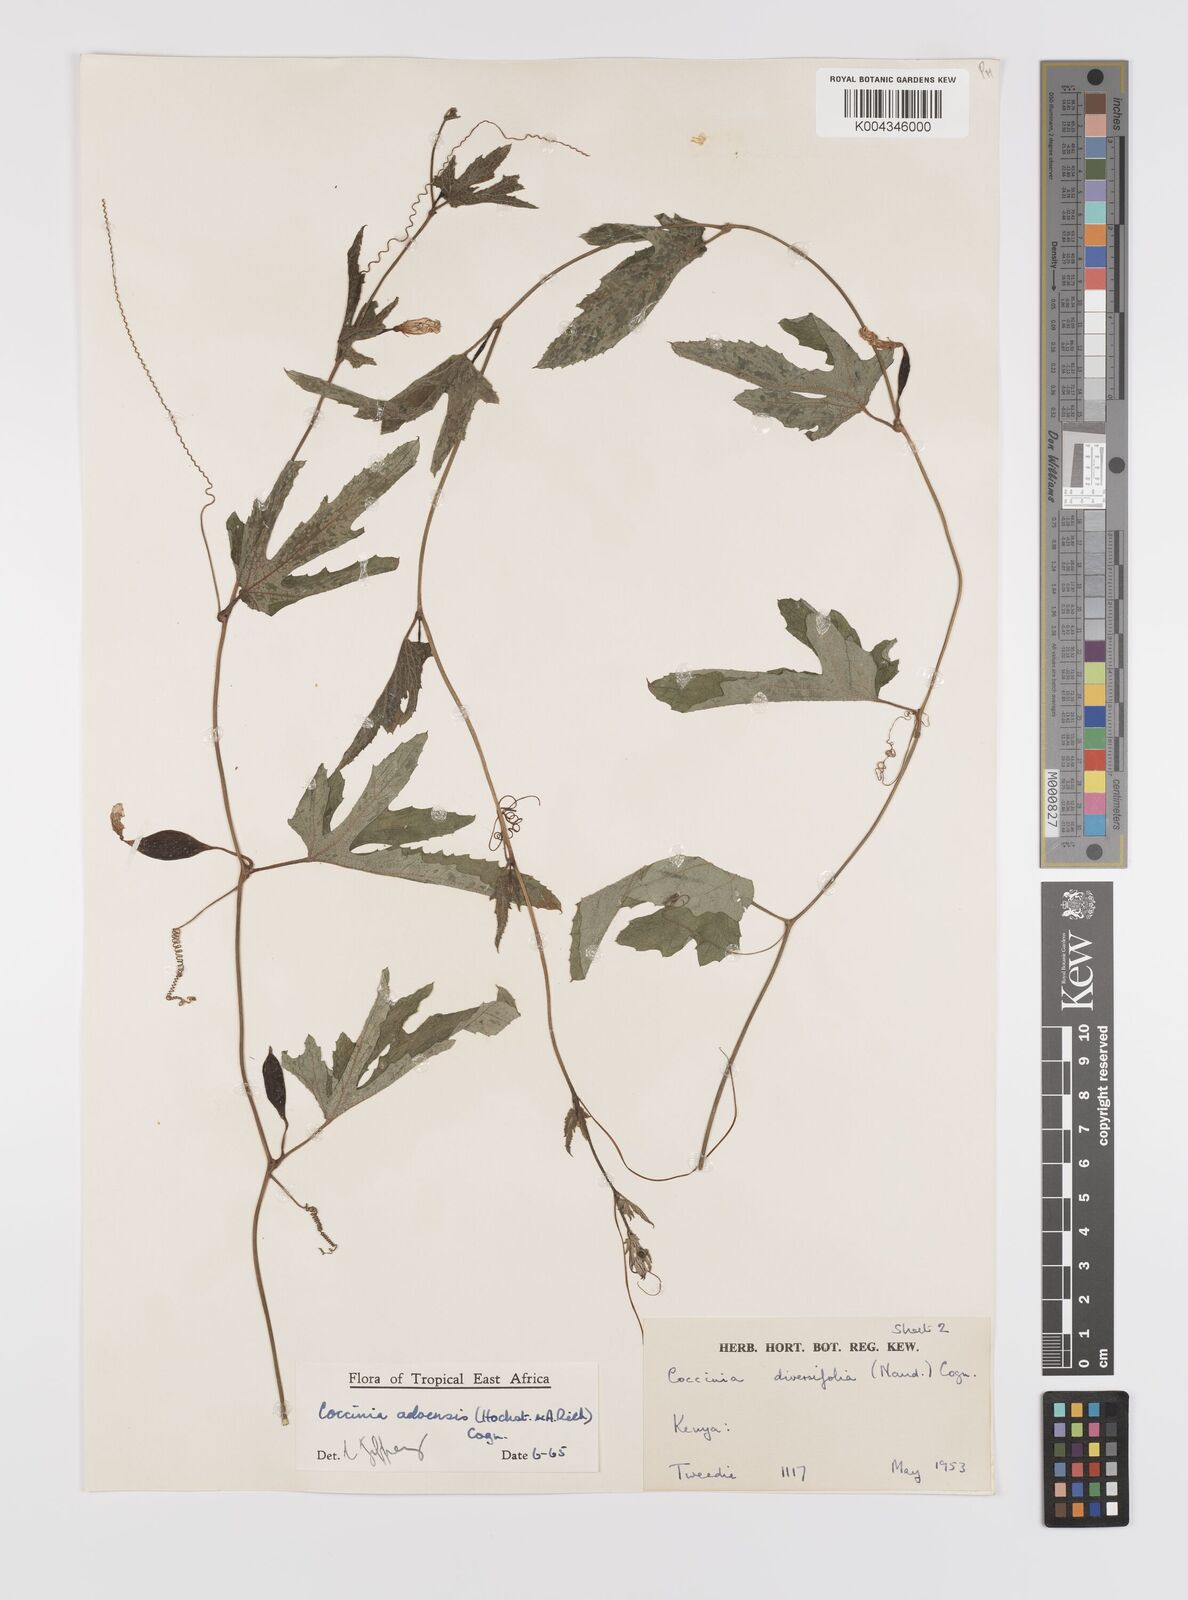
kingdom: Plantae
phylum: Tracheophyta
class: Magnoliopsida
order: Cucurbitales
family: Cucurbitaceae
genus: Coccinia
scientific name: Coccinia adoensis
